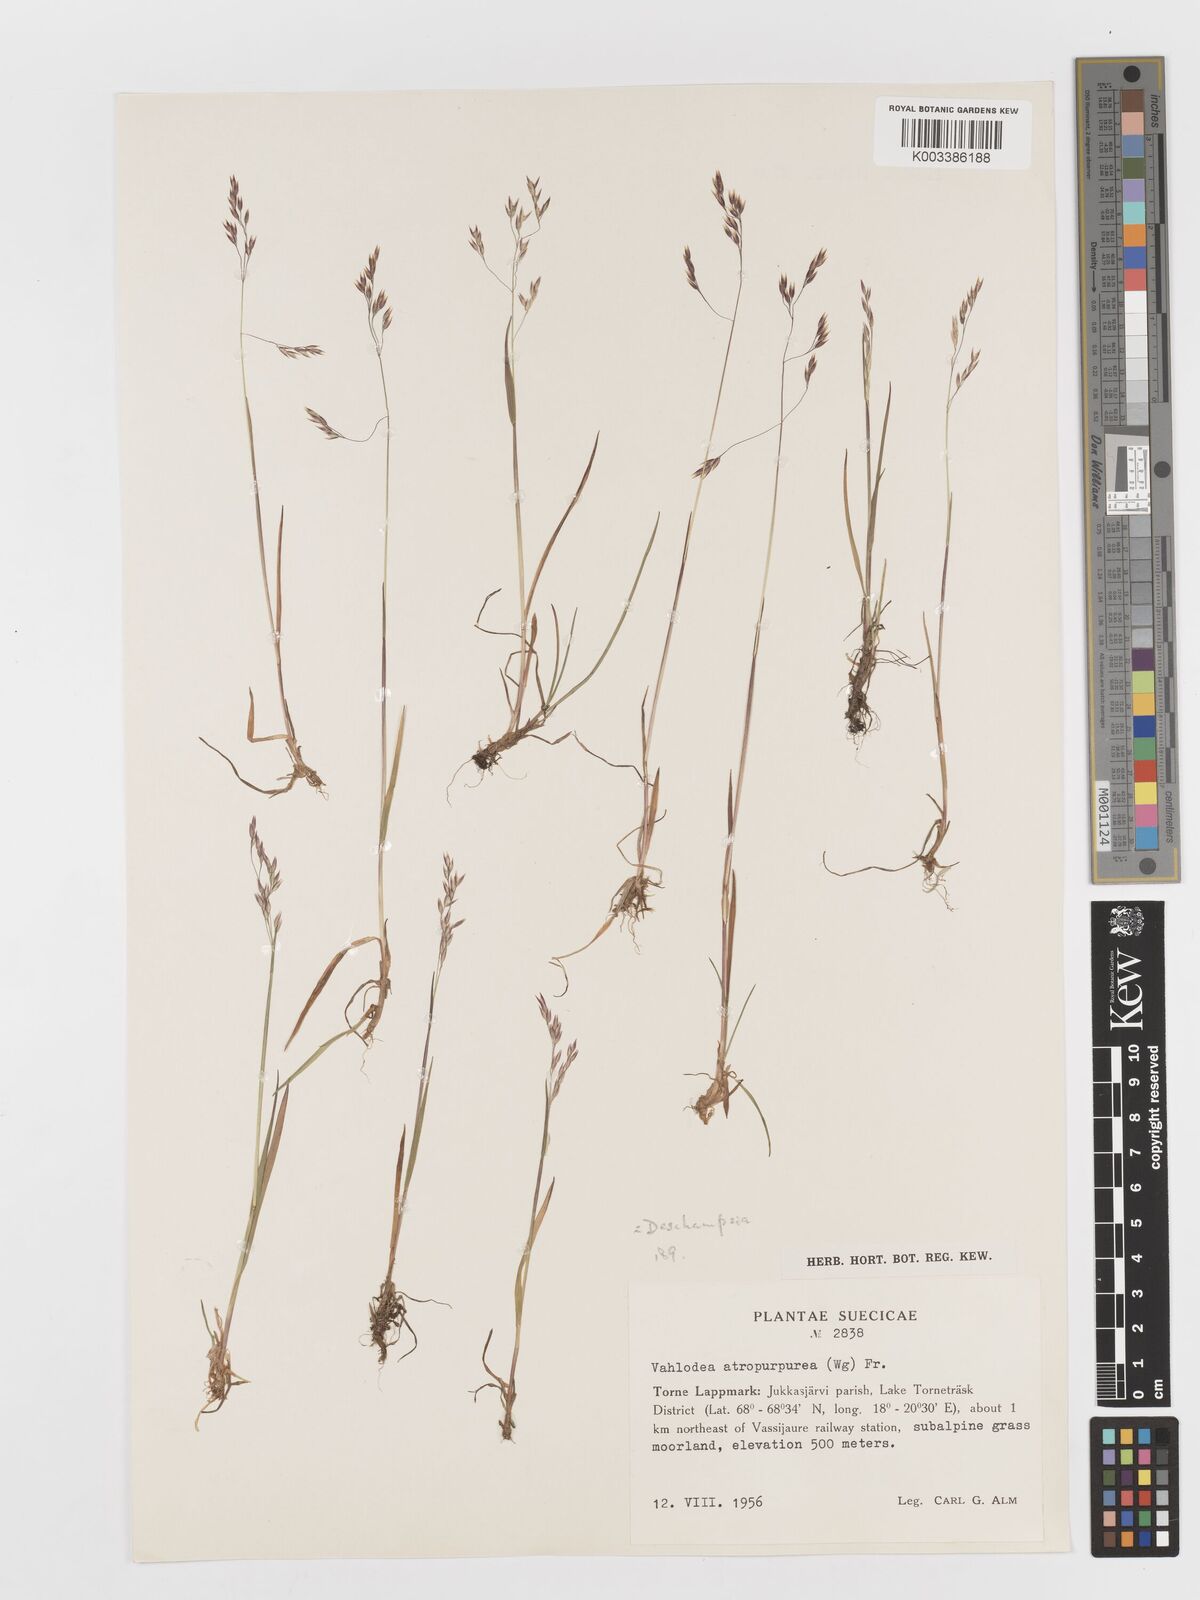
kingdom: Plantae
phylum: Tracheophyta
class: Liliopsida
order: Poales
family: Poaceae
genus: Vahlodea
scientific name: Vahlodea atropurpurea
